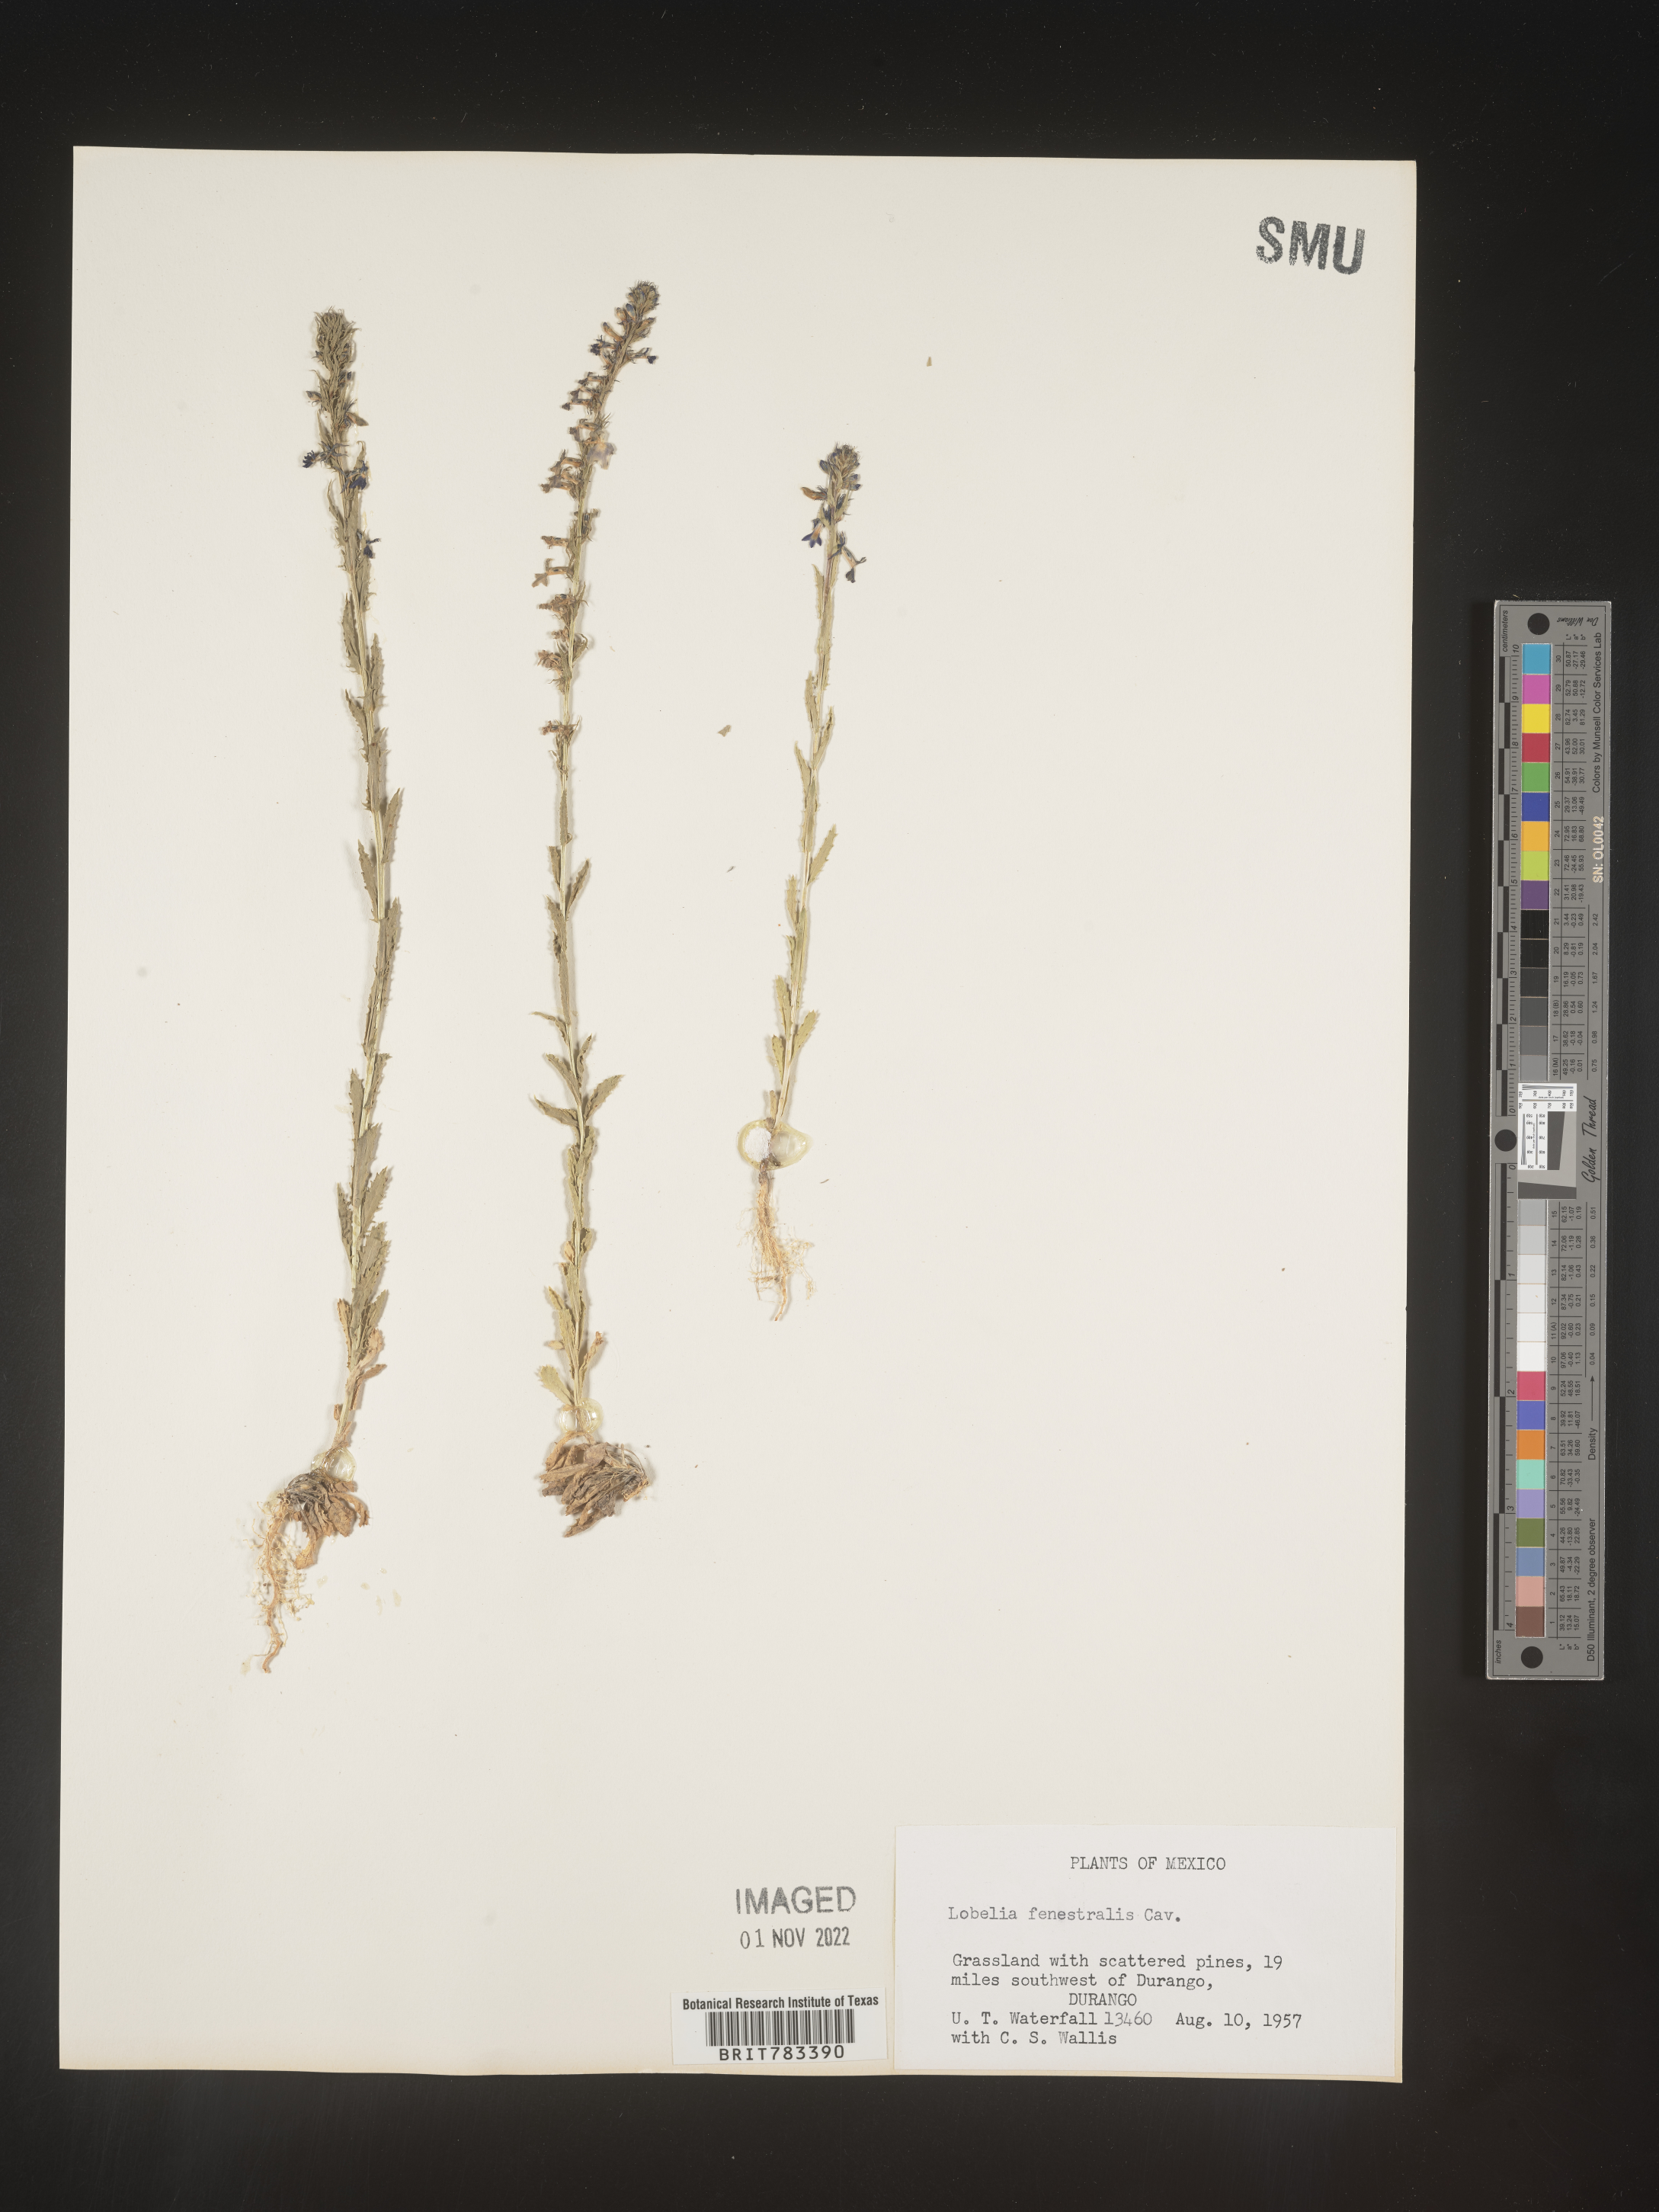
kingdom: Plantae
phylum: Tracheophyta
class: Magnoliopsida
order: Asterales
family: Campanulaceae
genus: Lobelia
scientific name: Lobelia
